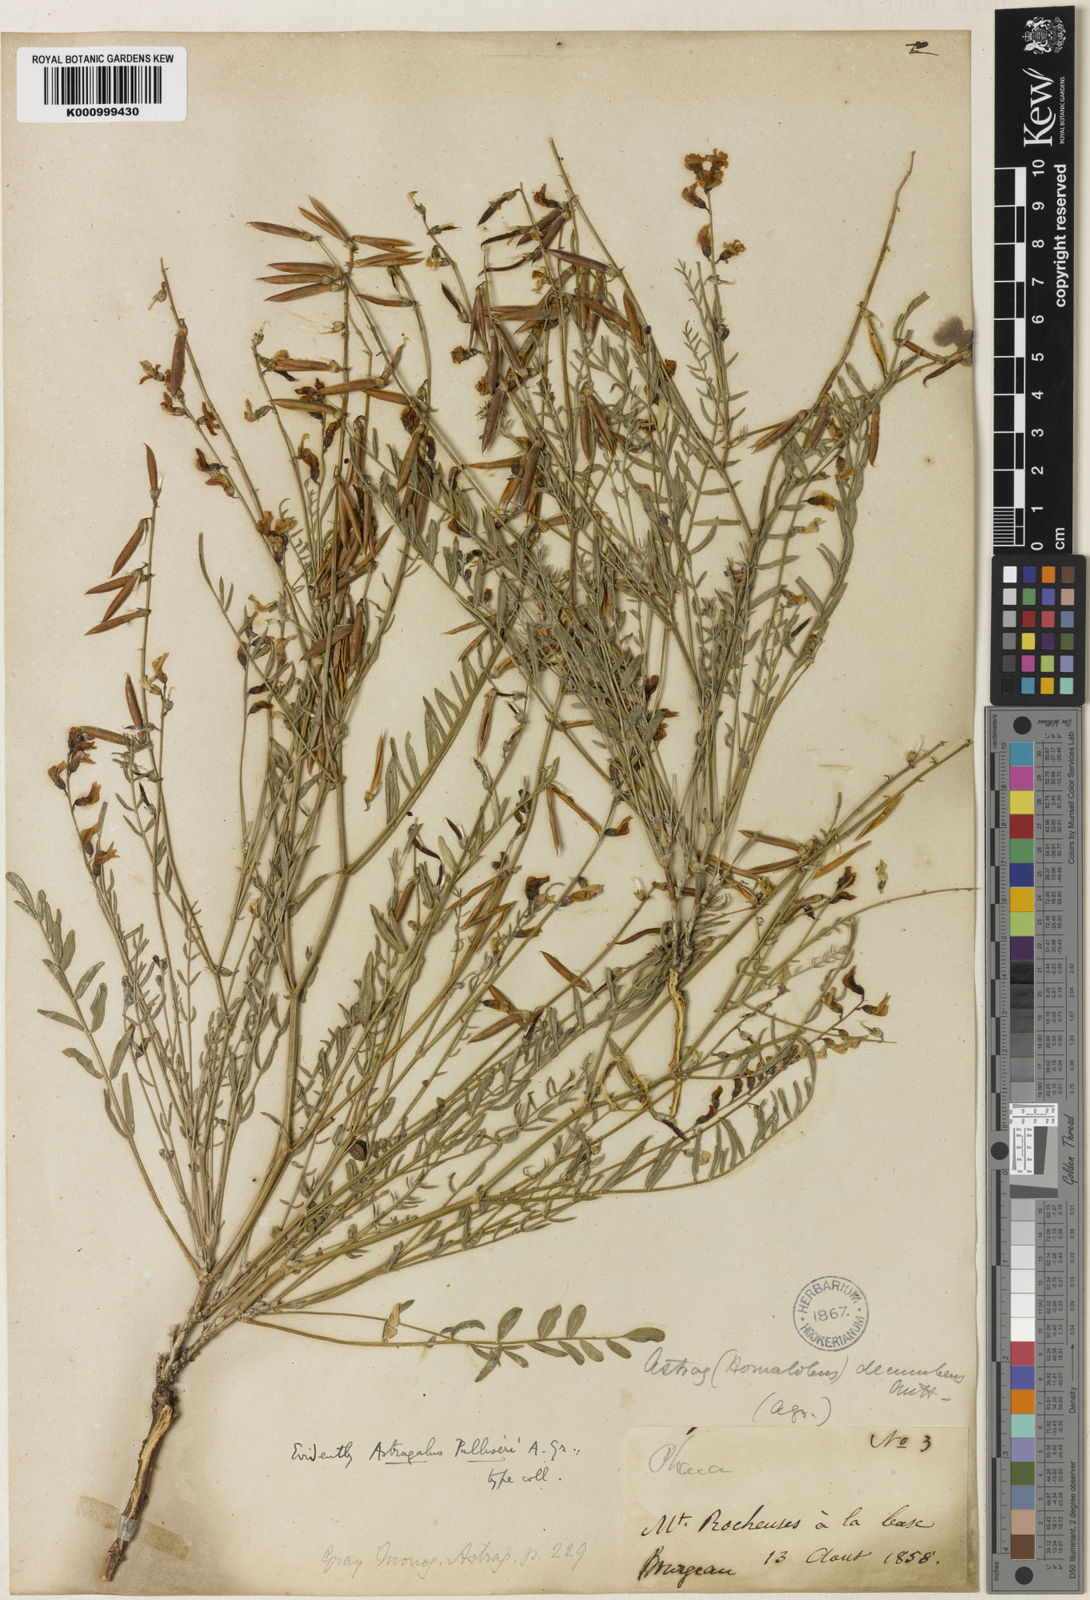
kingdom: Plantae
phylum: Tracheophyta
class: Magnoliopsida
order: Fabales
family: Fabaceae
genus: Astragalus
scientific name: Astragalus miser
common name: Timber milkvetch
